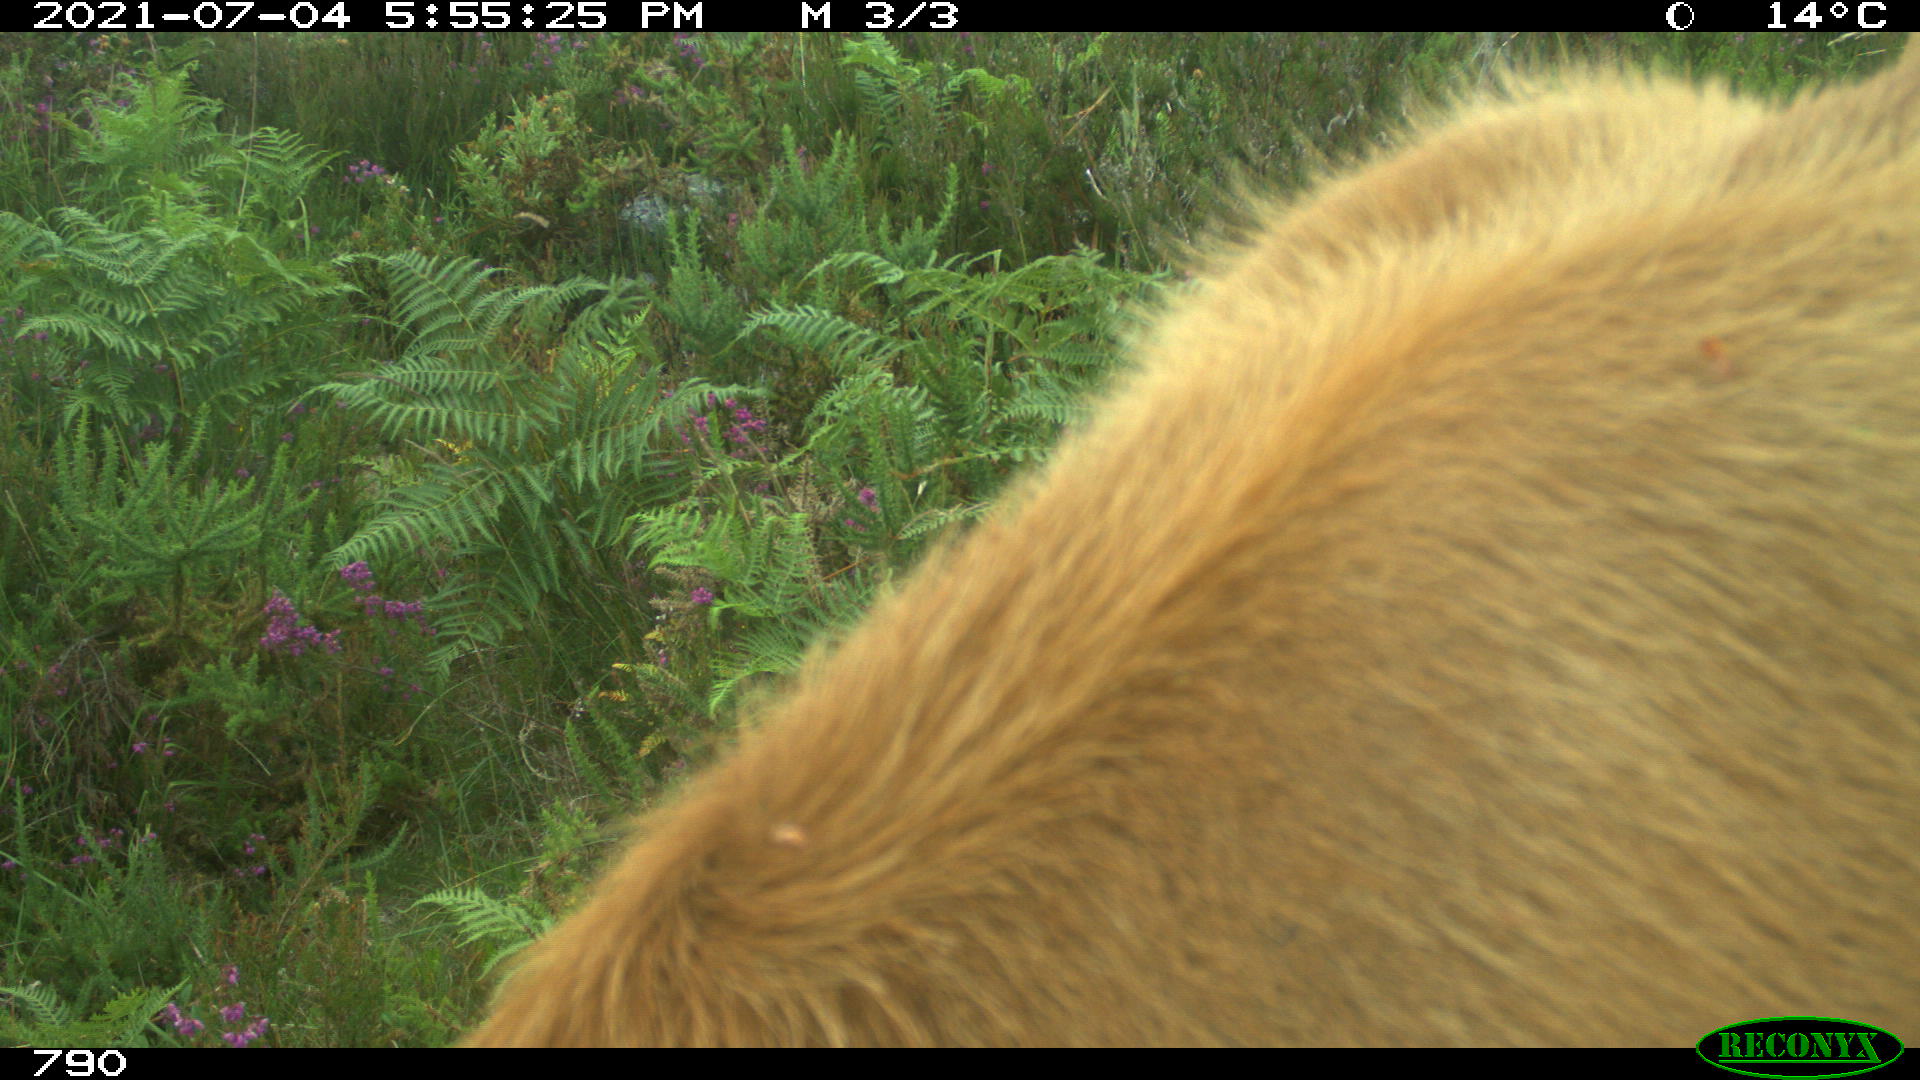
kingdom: Animalia
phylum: Chordata
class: Mammalia
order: Artiodactyla
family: Bovidae
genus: Bos
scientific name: Bos taurus
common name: Domesticated cattle
